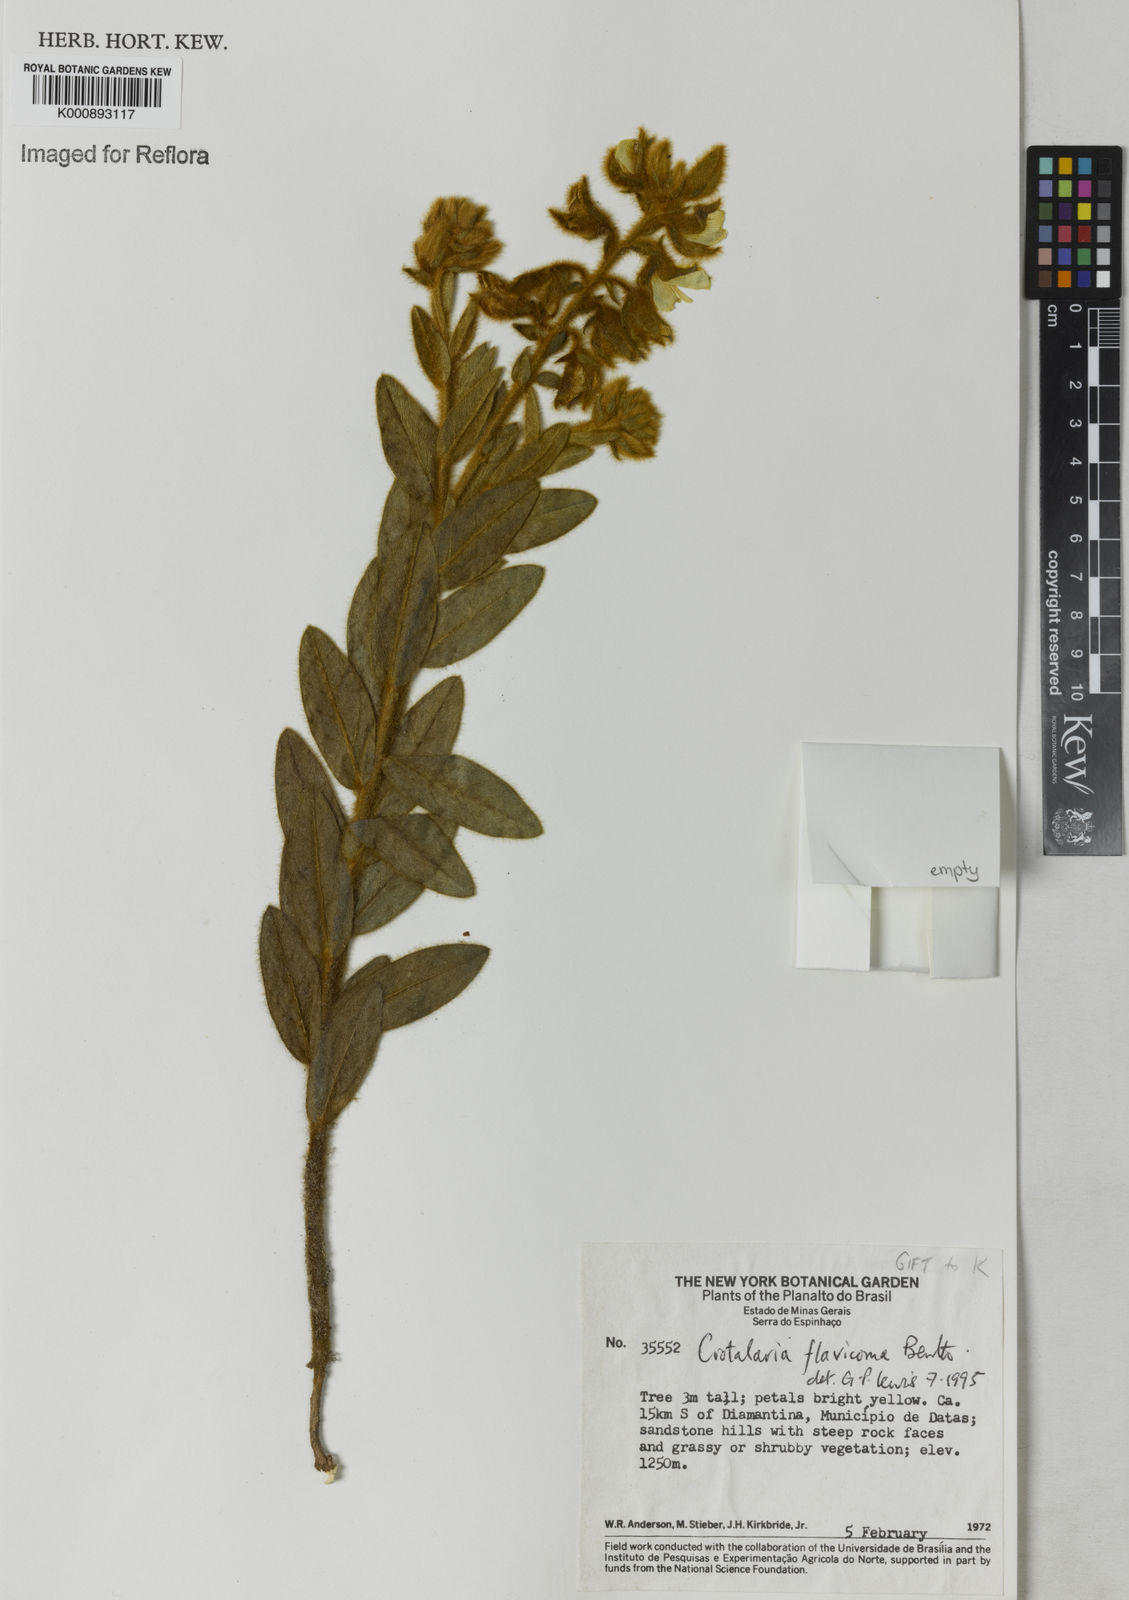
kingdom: Plantae
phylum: Tracheophyta
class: Magnoliopsida
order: Fabales
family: Fabaceae
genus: Crotalaria
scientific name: Crotalaria flavicoma
